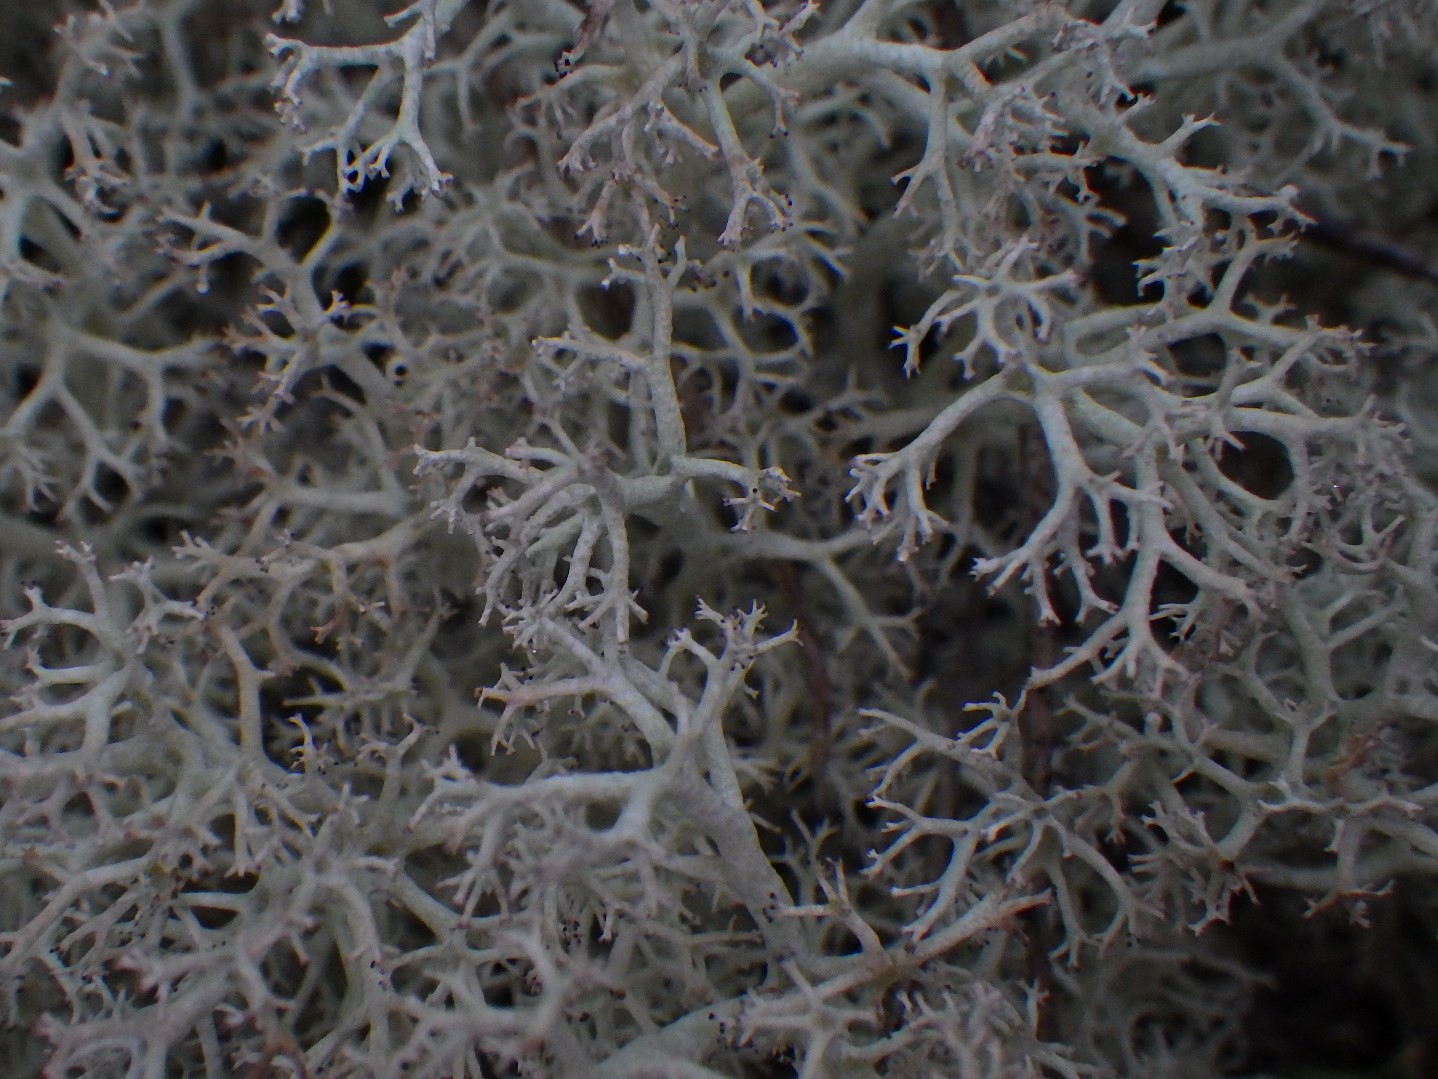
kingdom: Fungi
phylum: Ascomycota
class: Lecanoromycetes
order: Lecanorales
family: Cladoniaceae
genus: Cladonia
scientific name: Cladonia portentosa
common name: hede-rensdyrlav
